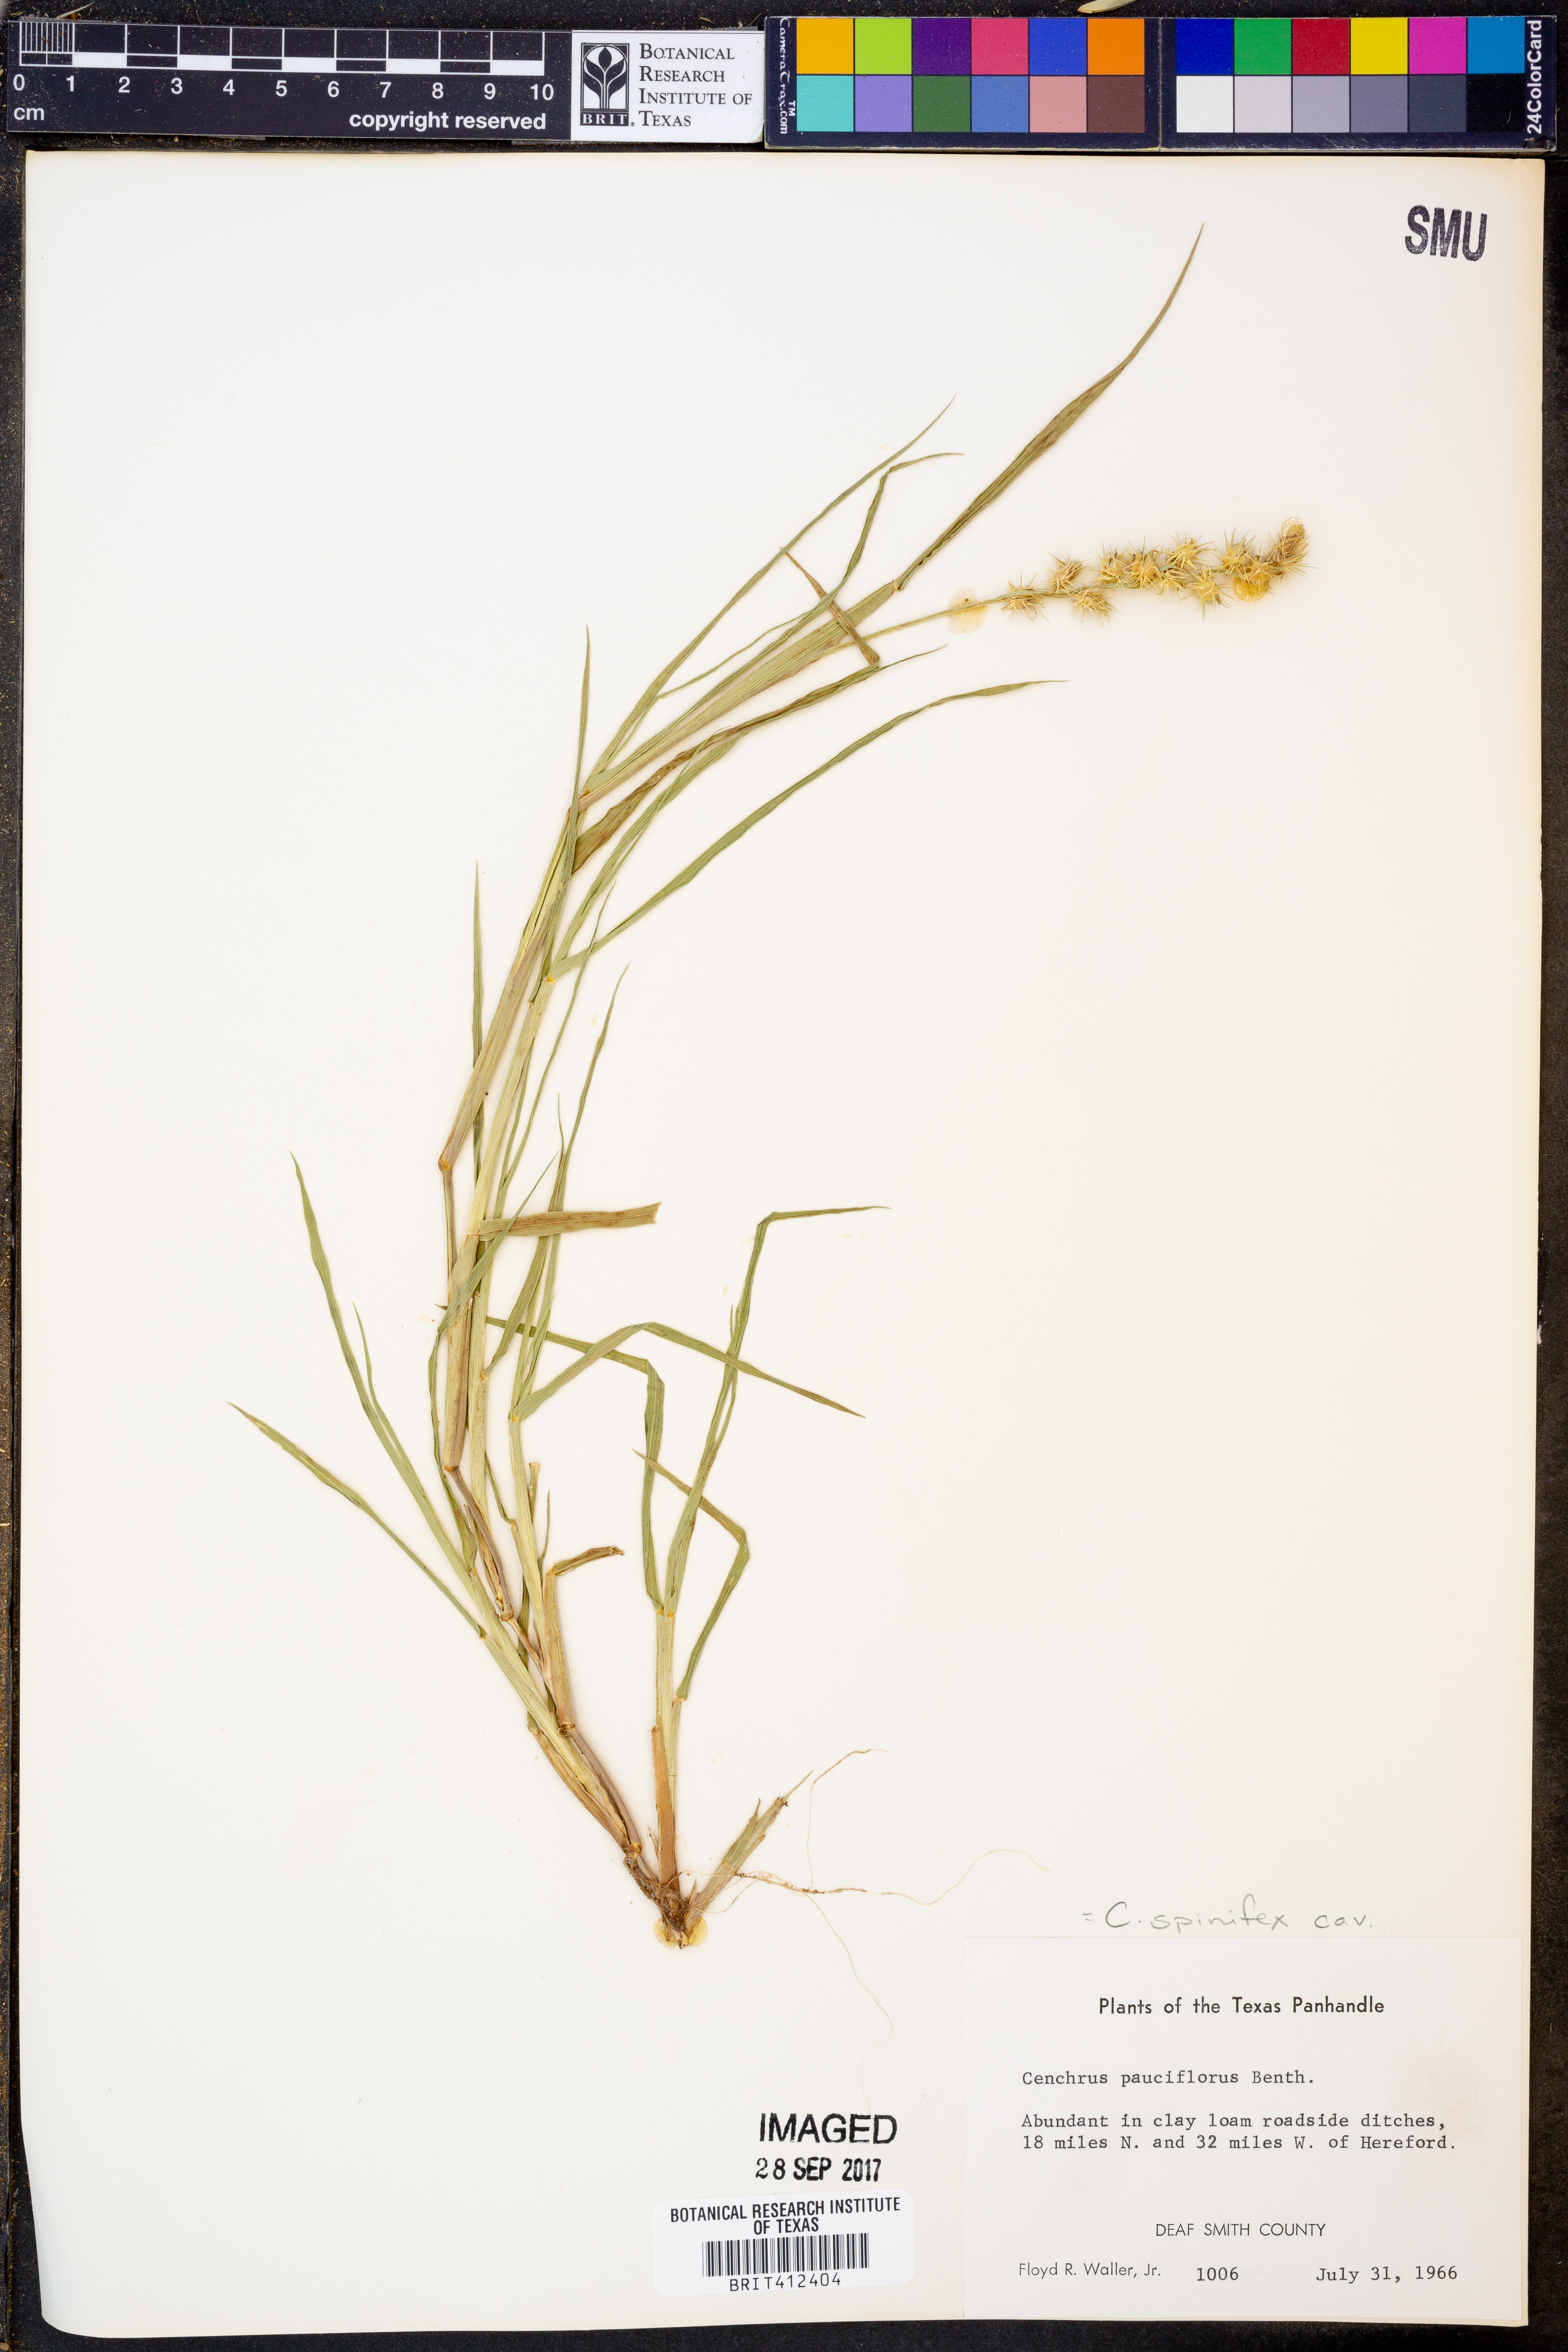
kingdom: Plantae
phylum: Tracheophyta
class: Liliopsida
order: Poales
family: Poaceae
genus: Cenchrus
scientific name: Cenchrus spinifex
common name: Coast sandbur
